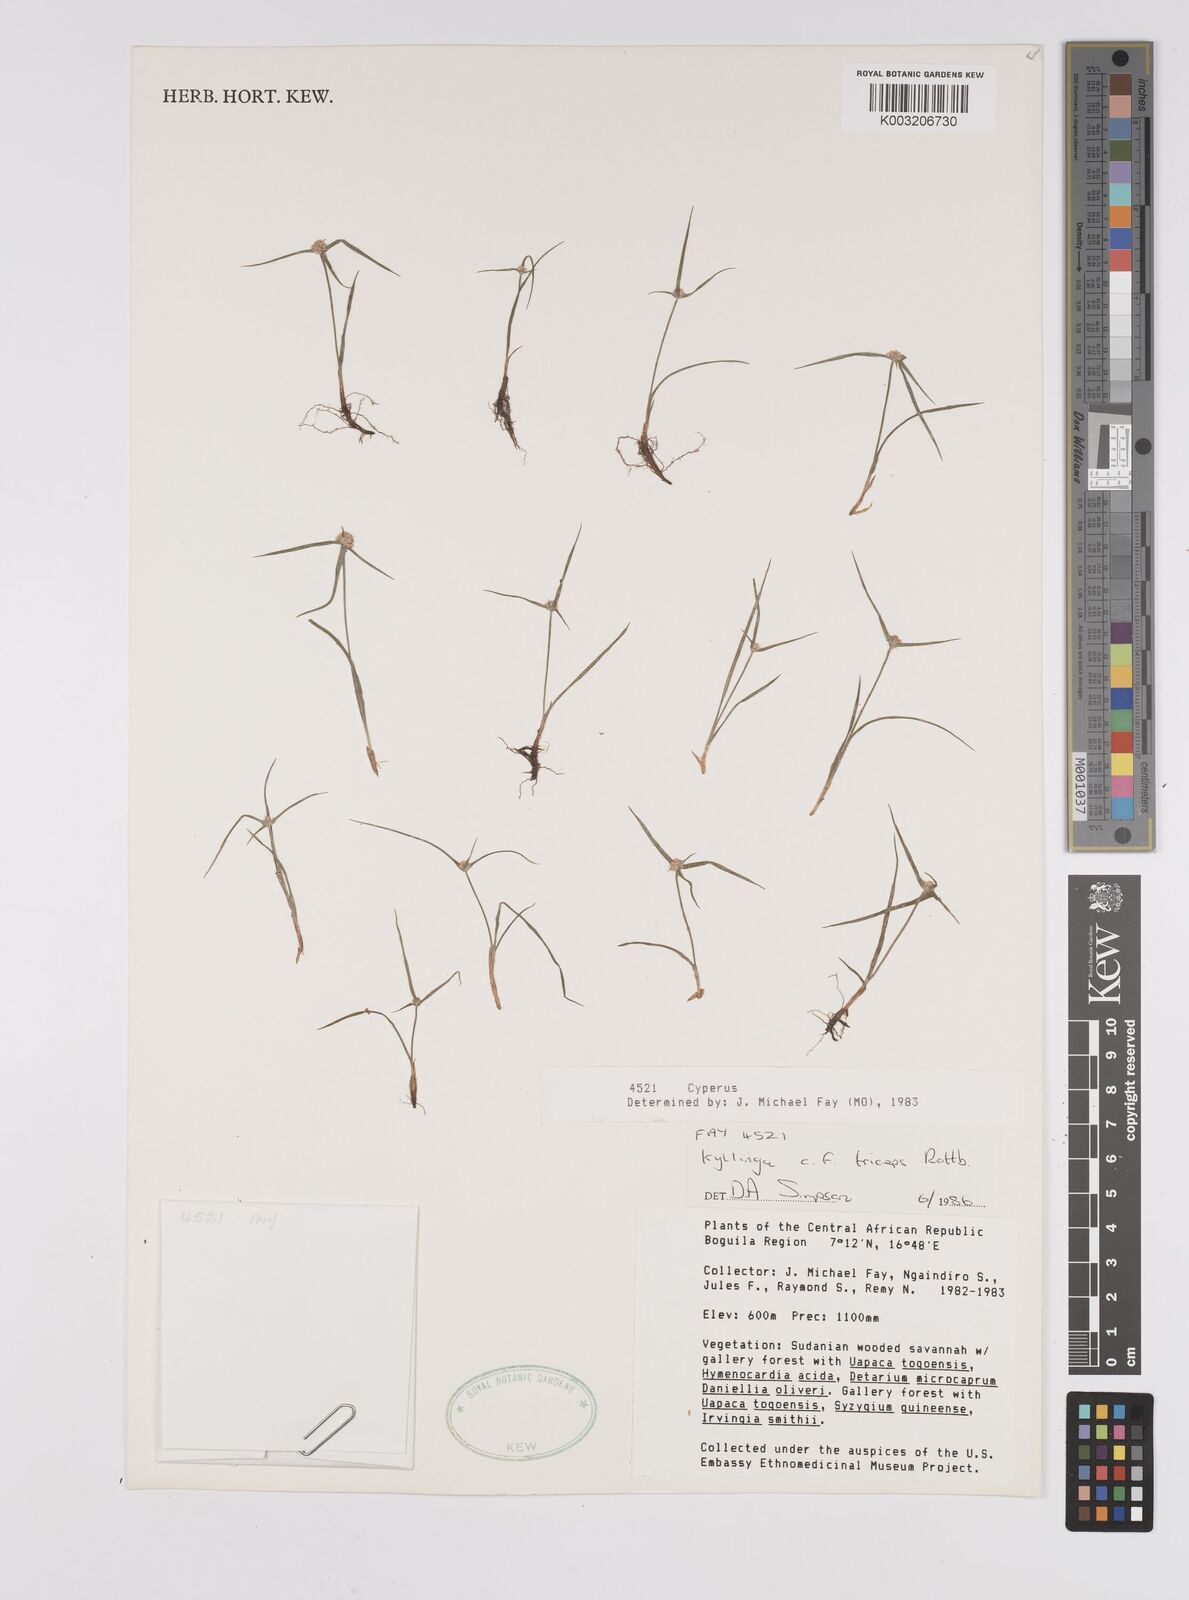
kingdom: Plantae
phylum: Tracheophyta
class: Liliopsida
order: Poales
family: Cyperaceae
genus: Cyperus
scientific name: Cyperus
